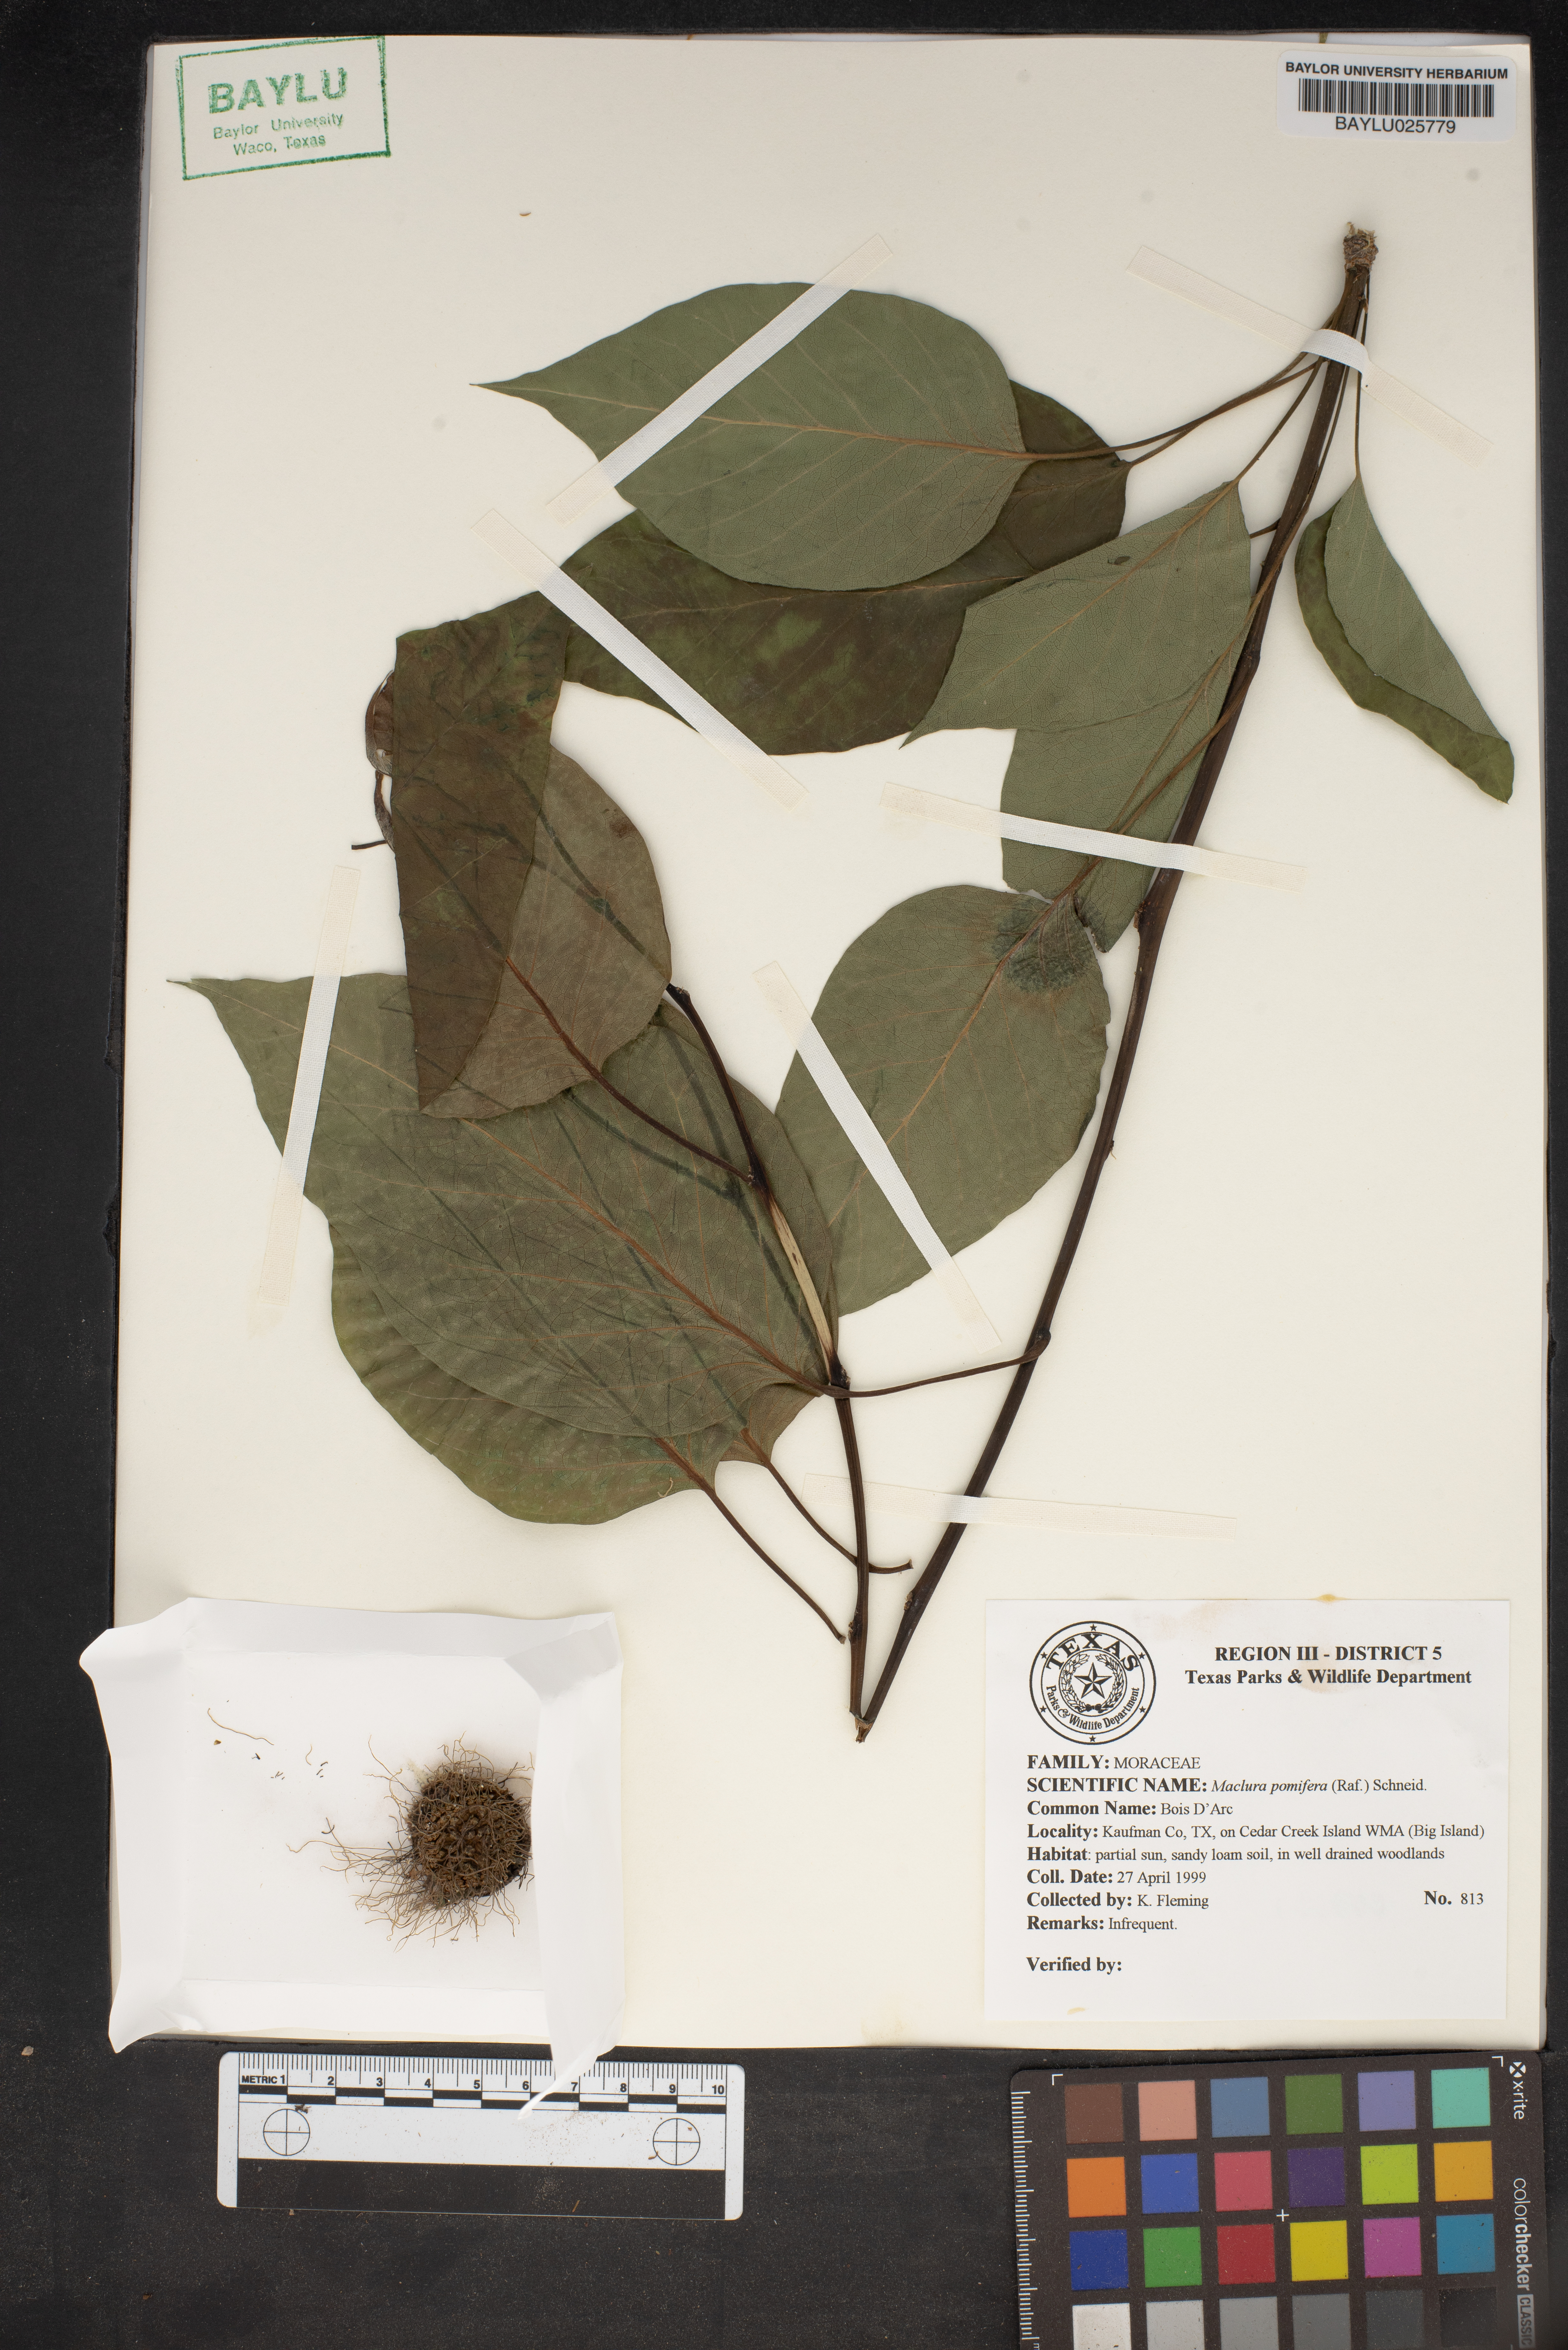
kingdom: Plantae
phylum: Tracheophyta
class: Magnoliopsida
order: Rosales
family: Moraceae
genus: Maclura
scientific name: Maclura pomifera
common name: Osage-orange
